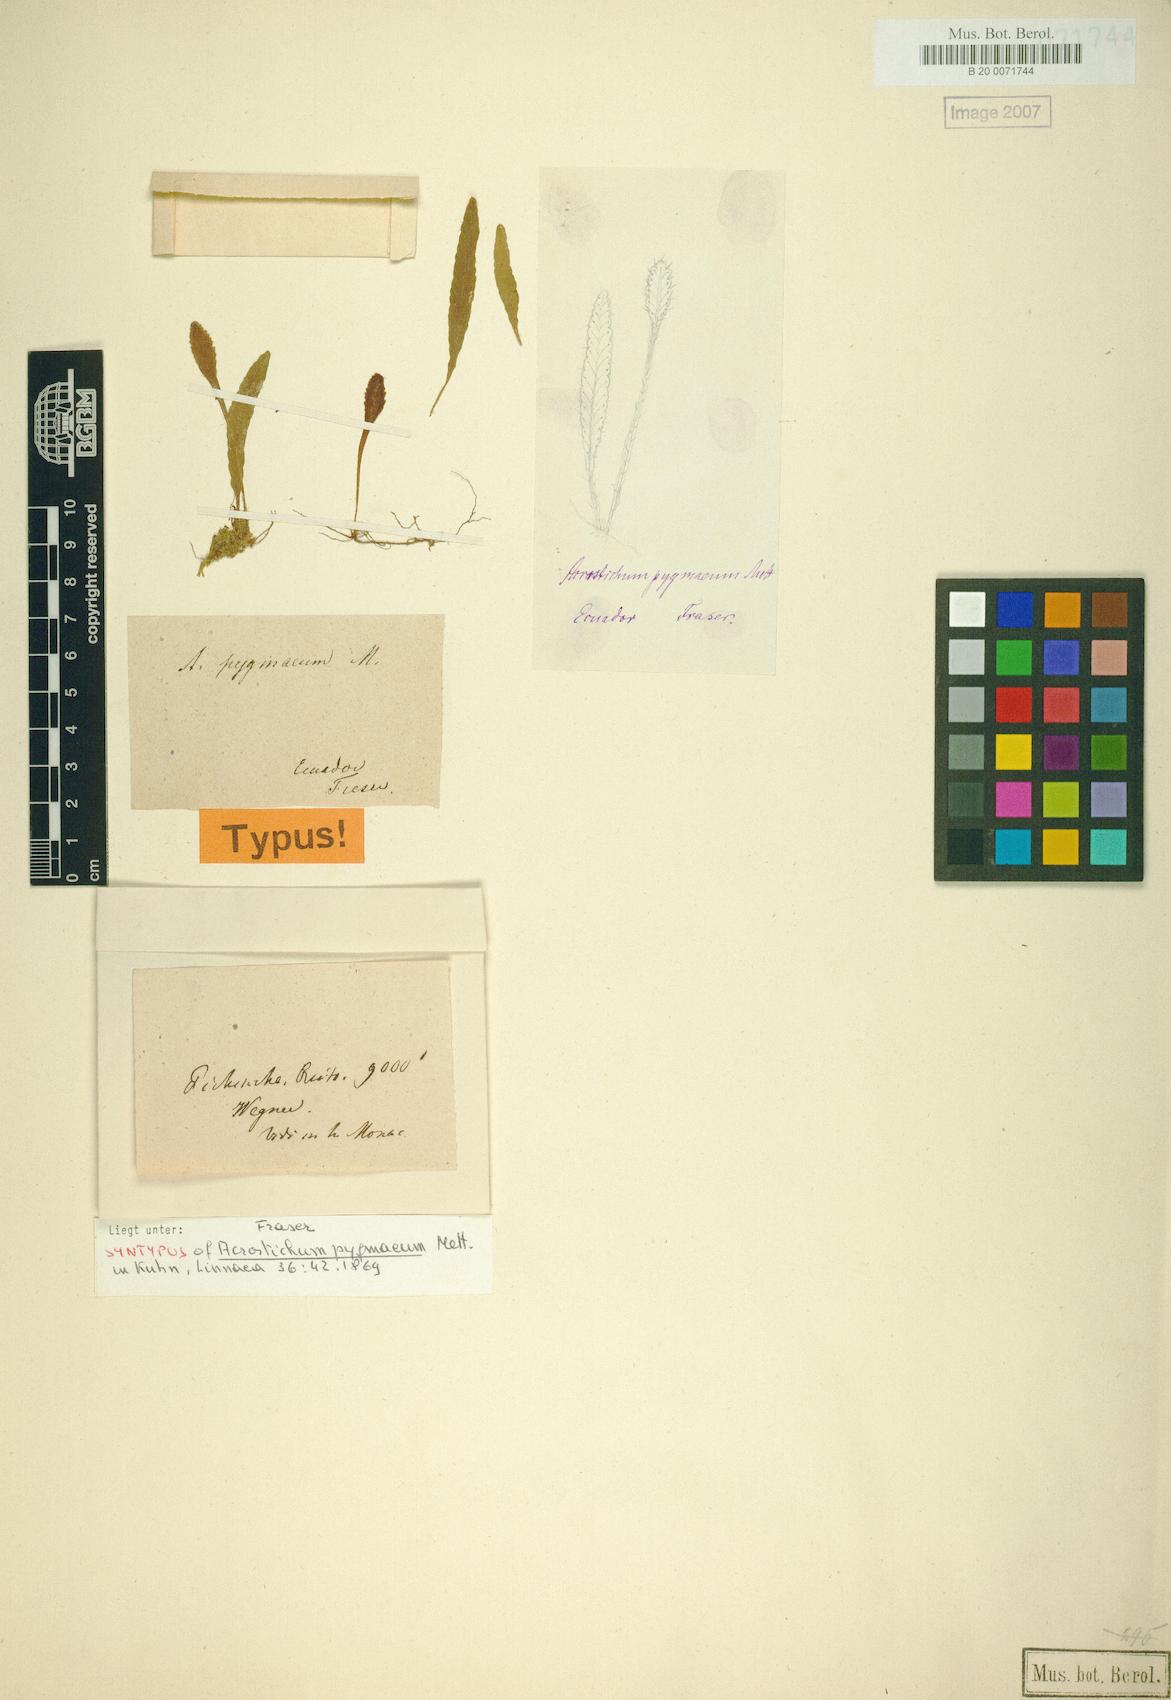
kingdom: Plantae
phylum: Tracheophyta
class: Polypodiopsida
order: Polypodiales
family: Dryopteridaceae
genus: Elaphoglossum
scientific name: Elaphoglossum pygmaeum
